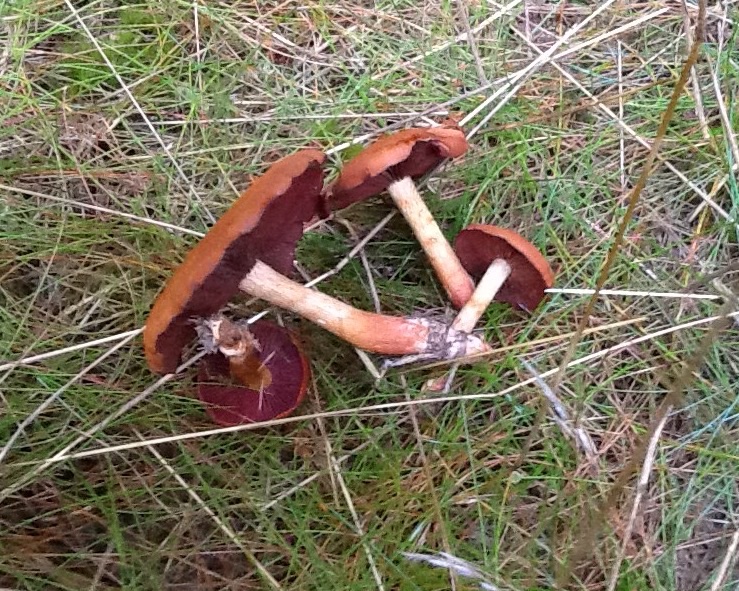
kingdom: Fungi
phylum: Basidiomycota
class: Agaricomycetes
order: Agaricales
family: Cortinariaceae
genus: Cortinarius
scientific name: Cortinarius purpureus
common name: brunrød slørhat
